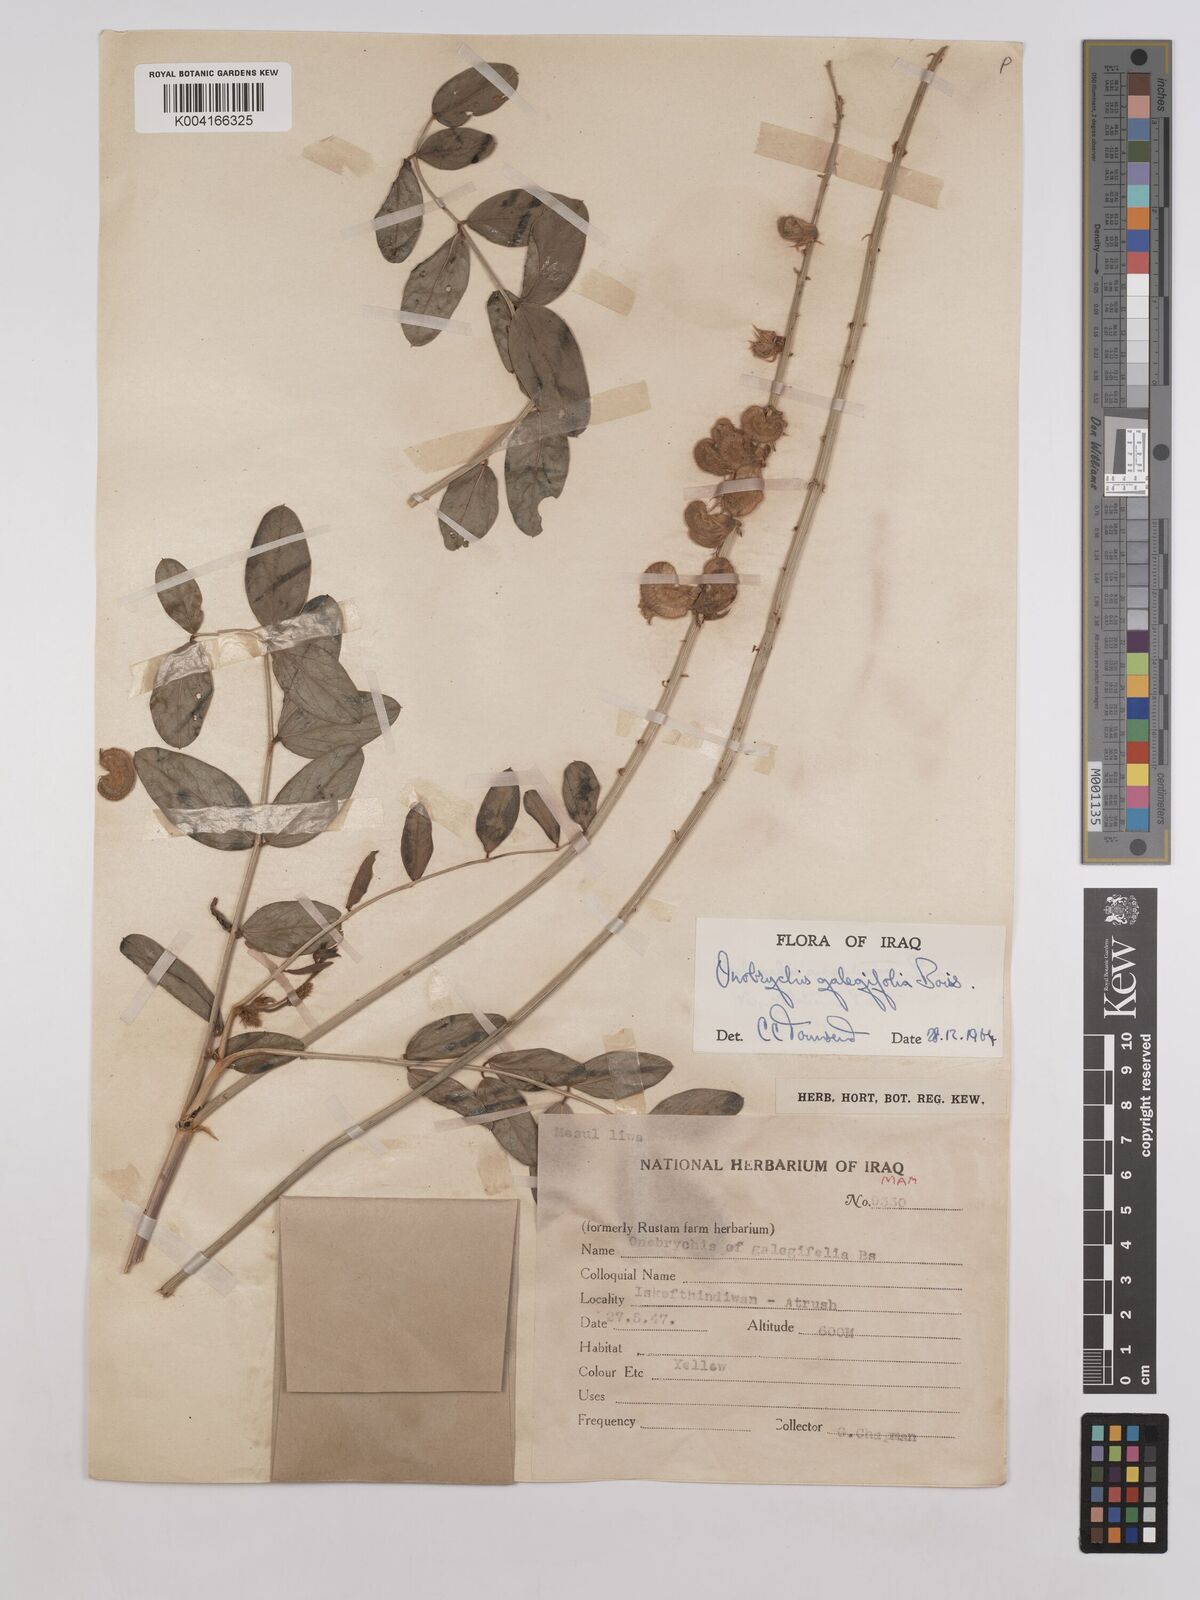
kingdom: Plantae
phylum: Tracheophyta
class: Magnoliopsida
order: Fabales
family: Fabaceae
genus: Onobrychis
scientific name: Onobrychis galegifolia
